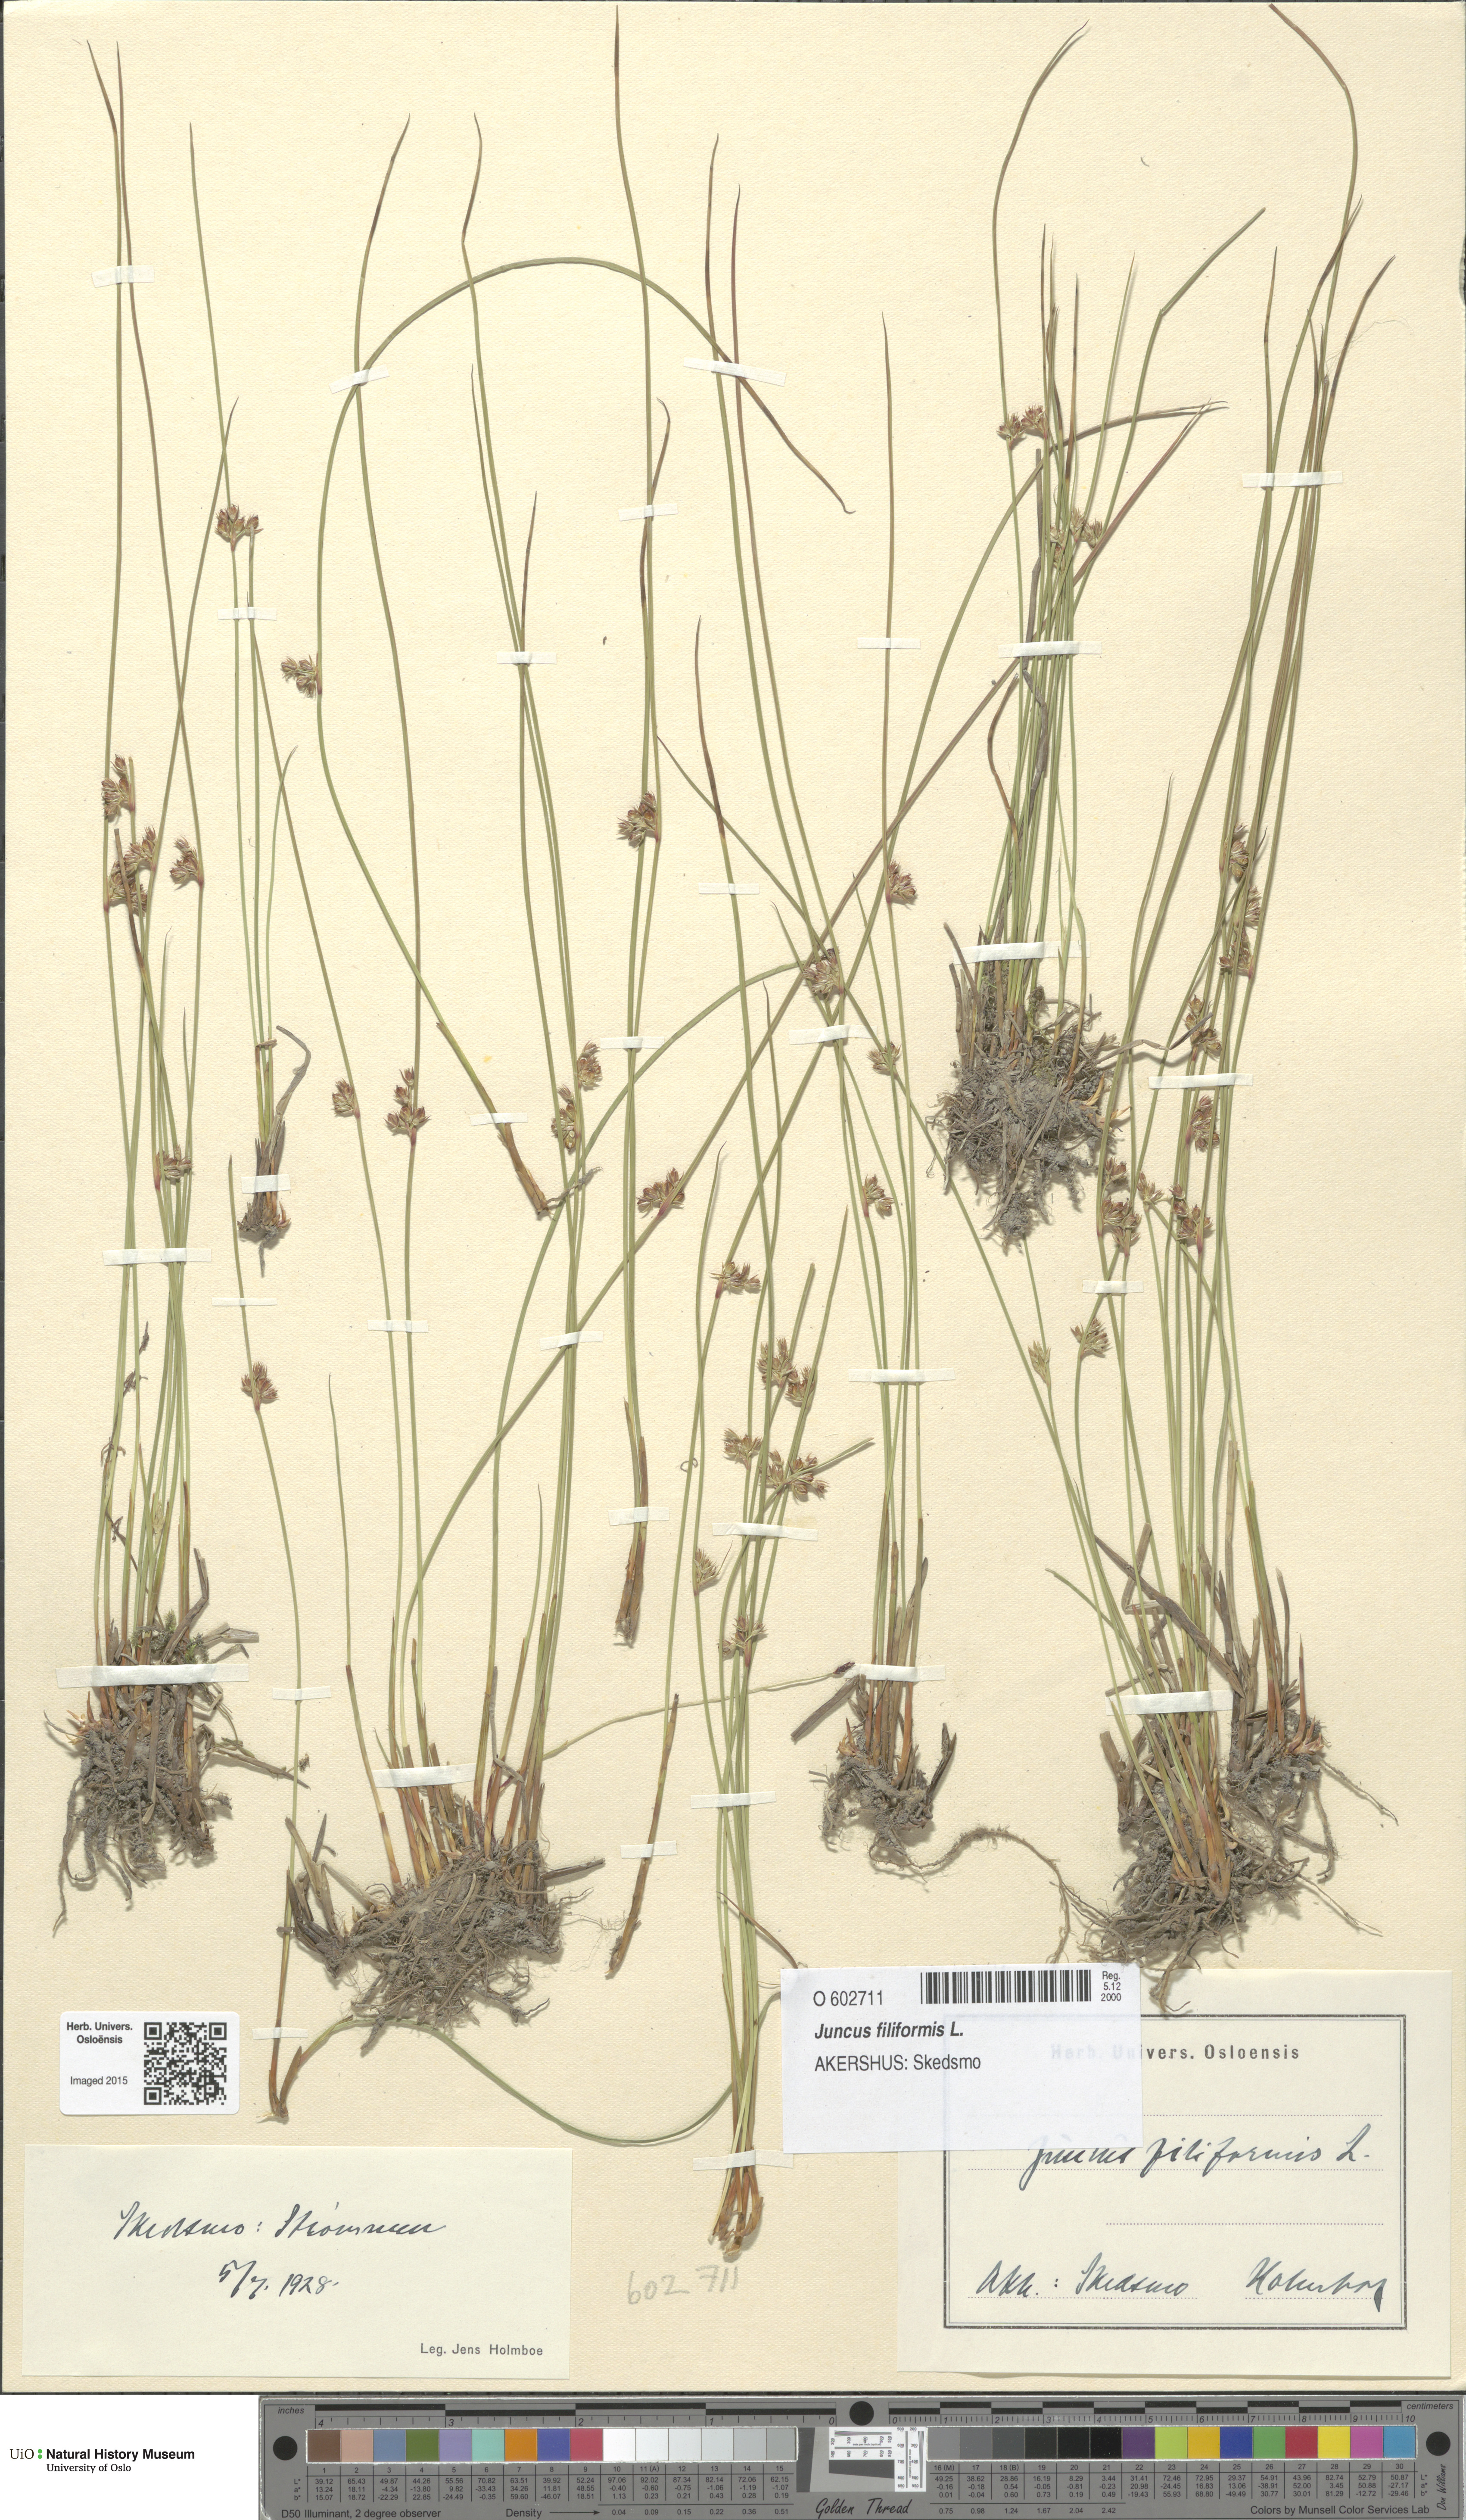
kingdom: Plantae
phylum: Tracheophyta
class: Liliopsida
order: Poales
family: Juncaceae
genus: Juncus
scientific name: Juncus filiformis
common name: Thread rush
